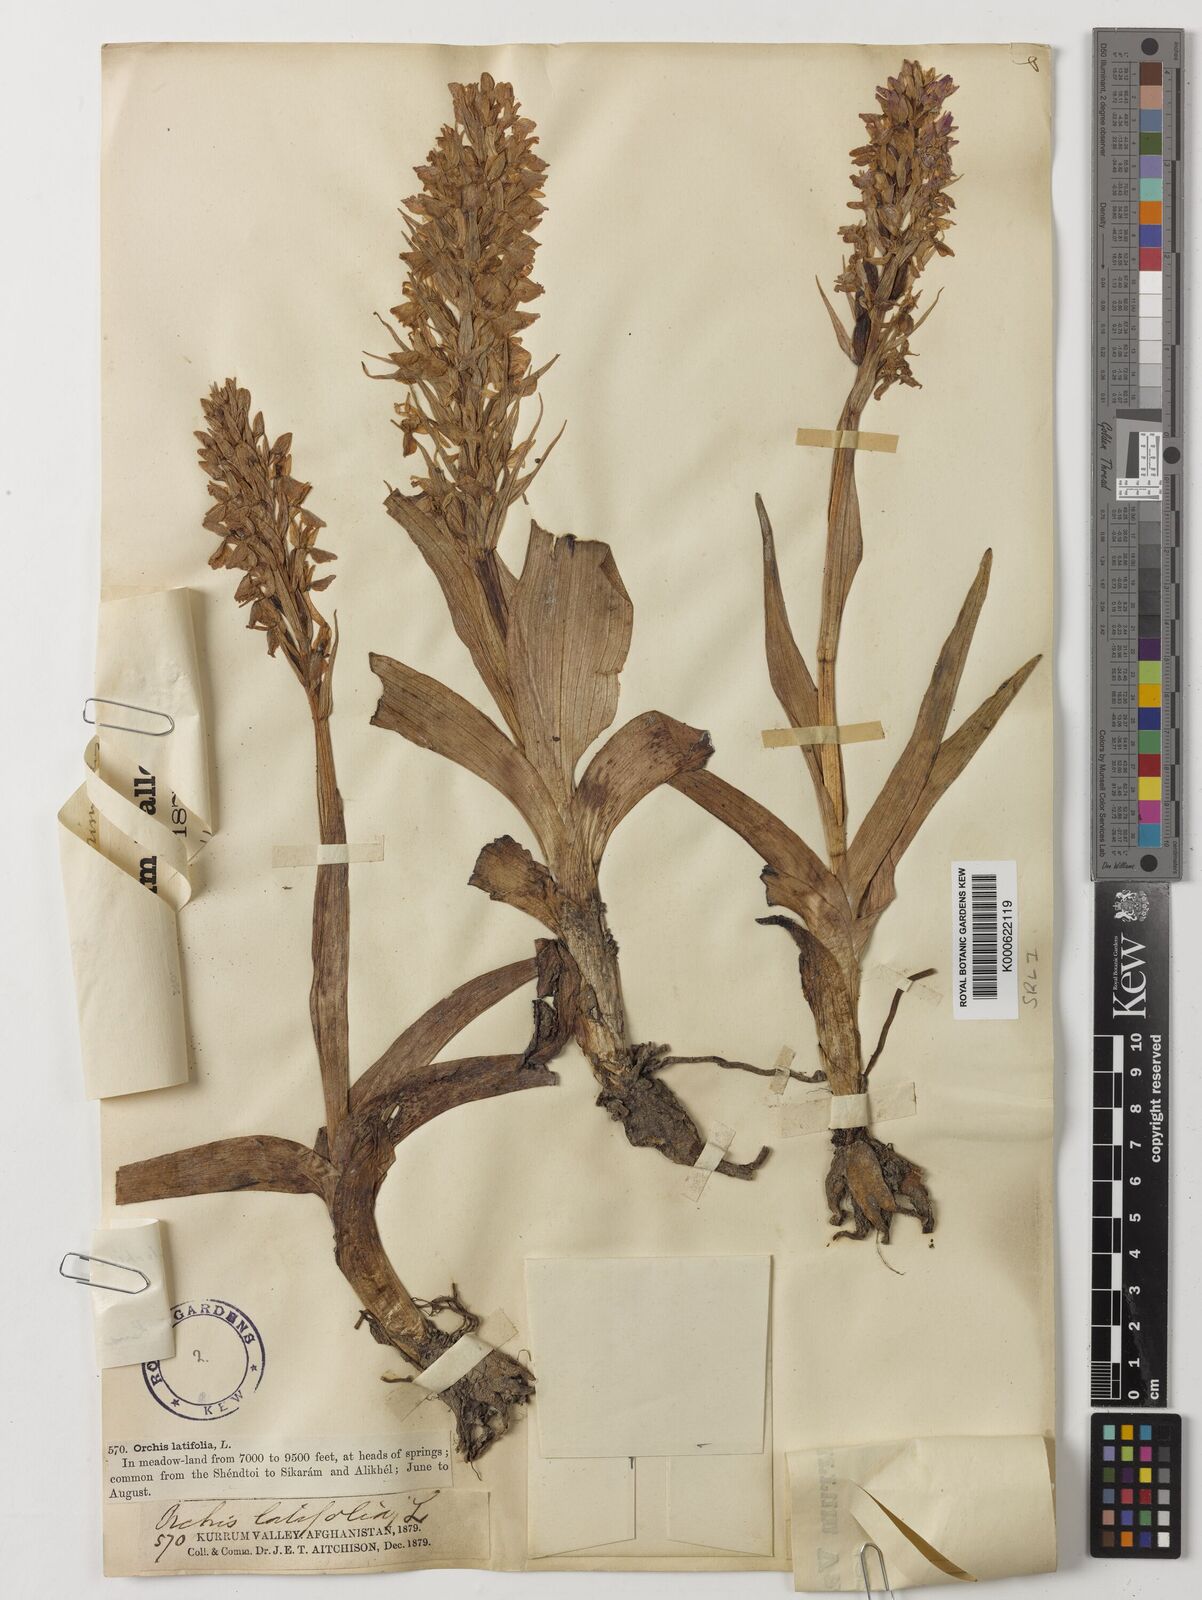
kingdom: Plantae
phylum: Tracheophyta
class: Liliopsida
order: Asparagales
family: Orchidaceae
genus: Dactylorhiza
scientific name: Dactylorhiza
